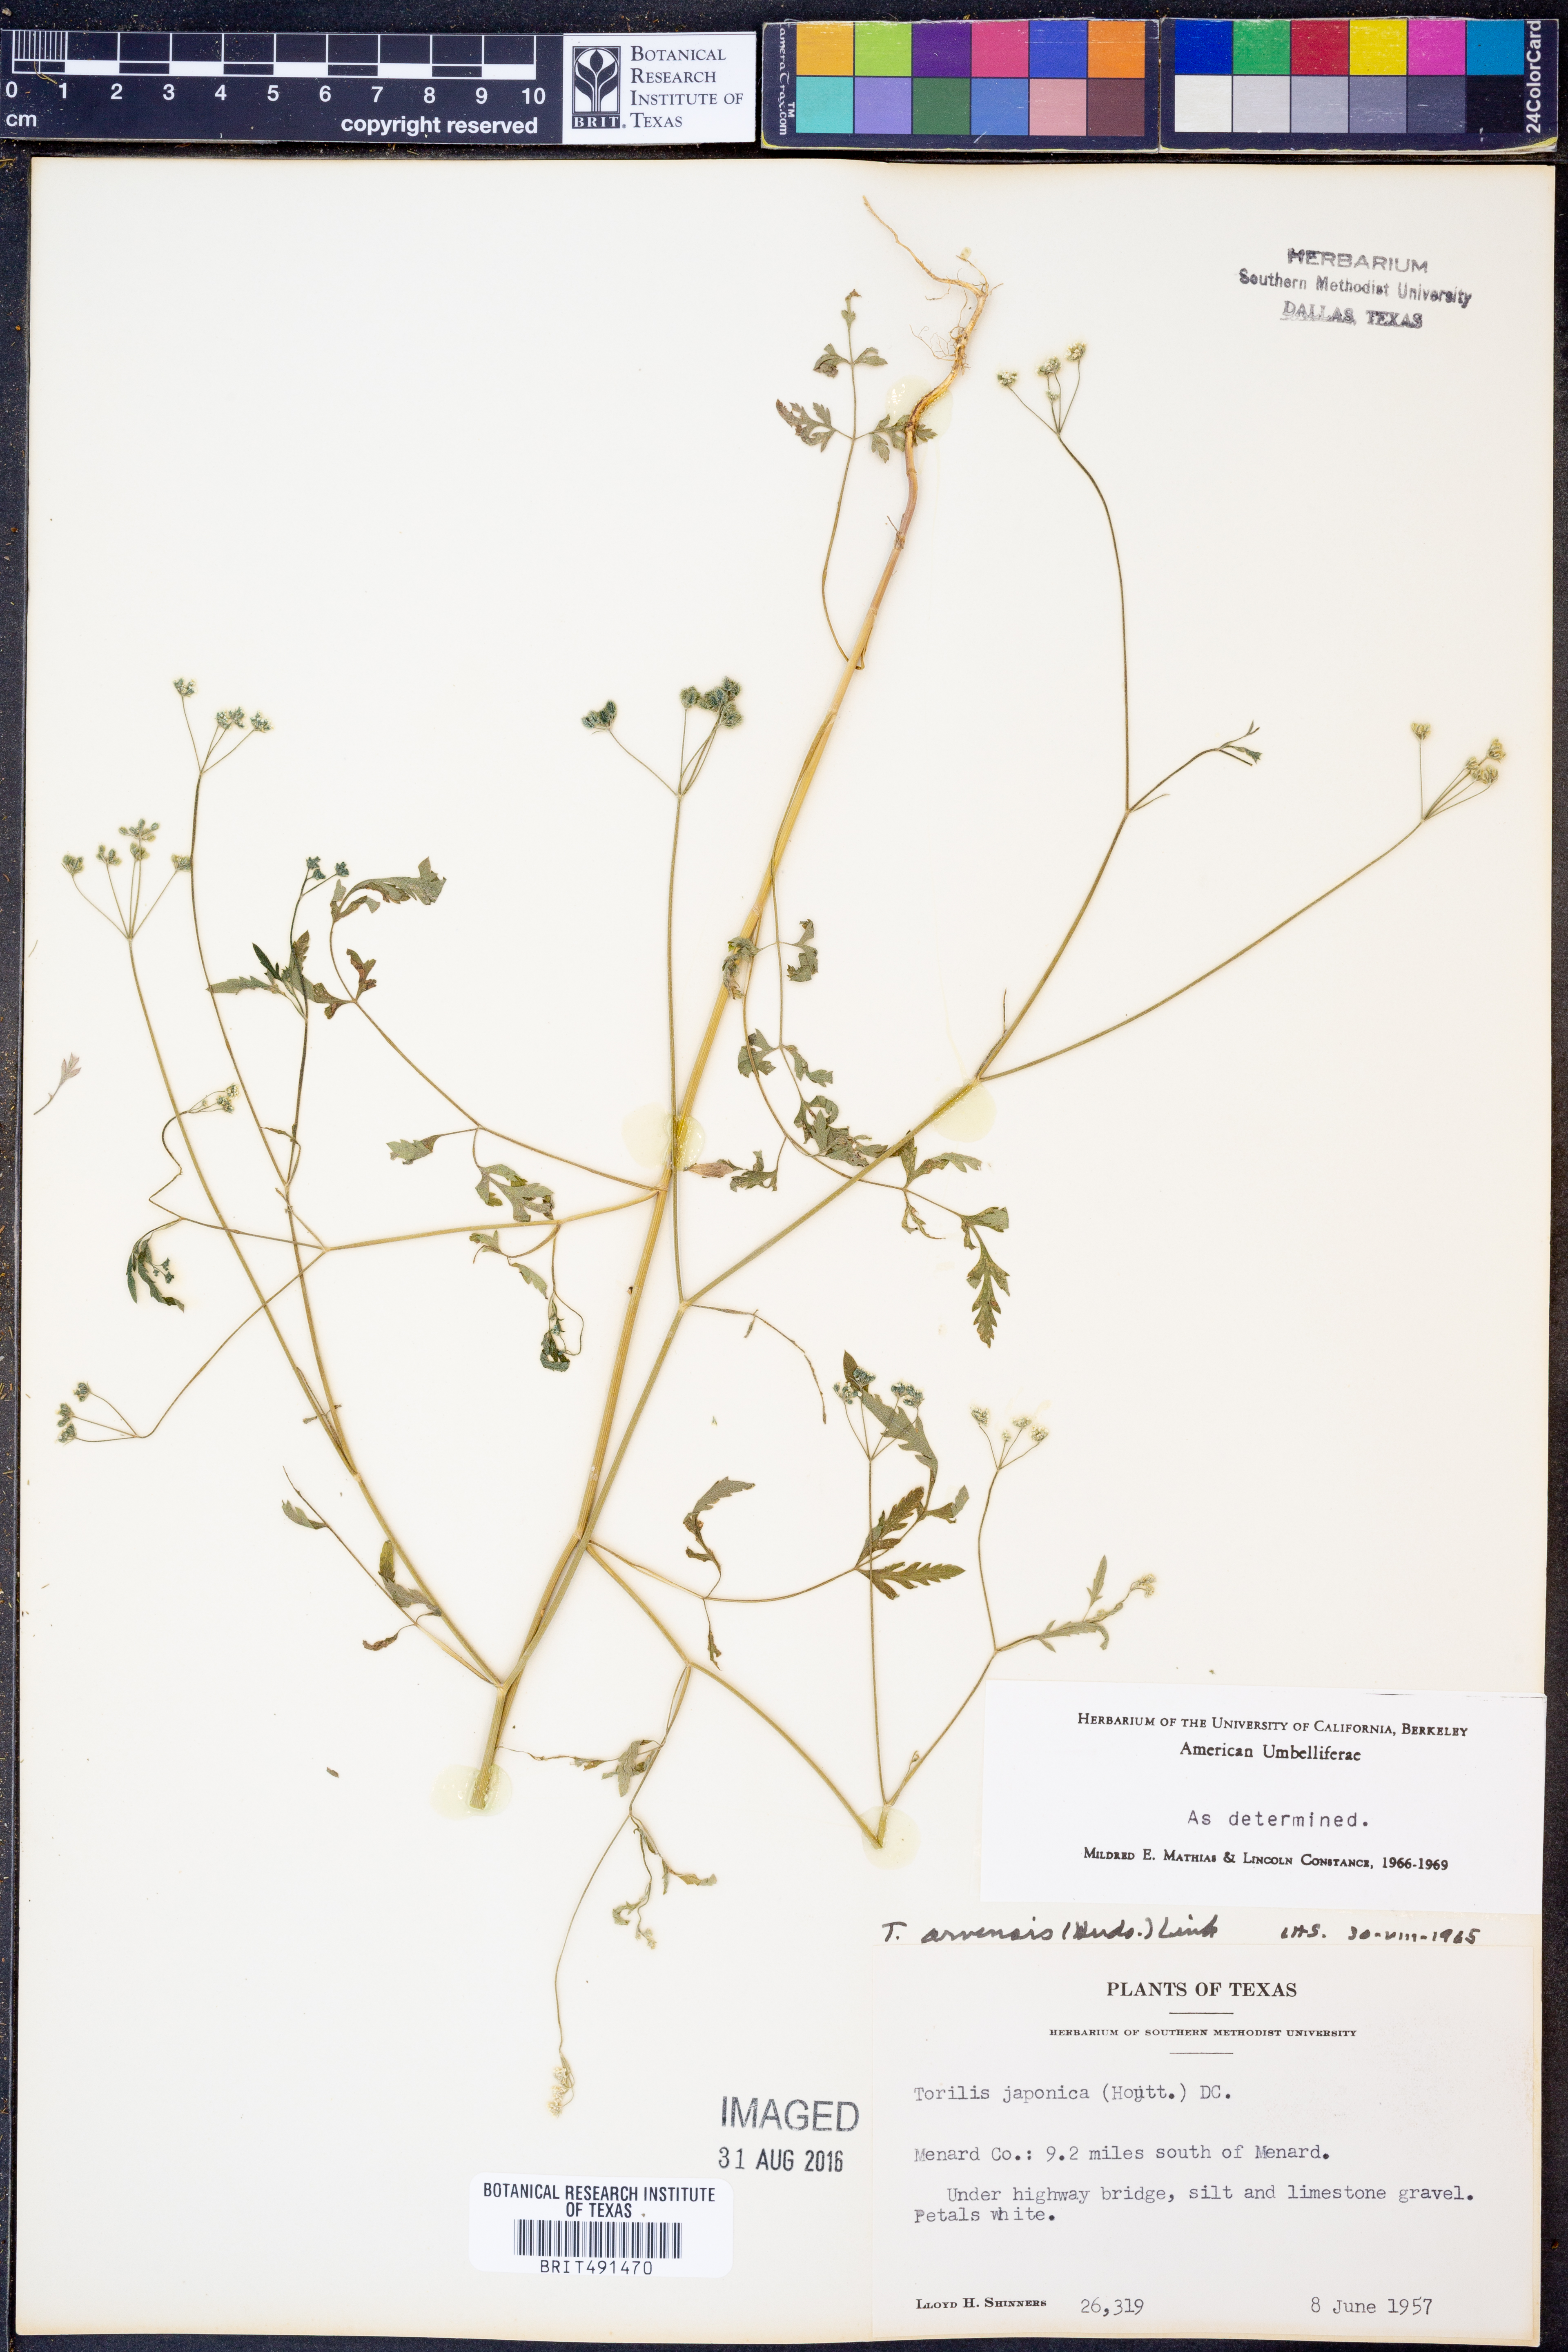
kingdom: Plantae
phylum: Tracheophyta
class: Magnoliopsida
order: Apiales
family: Apiaceae
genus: Torilis
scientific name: Torilis arvensis
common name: Spreading hedge-parsley
